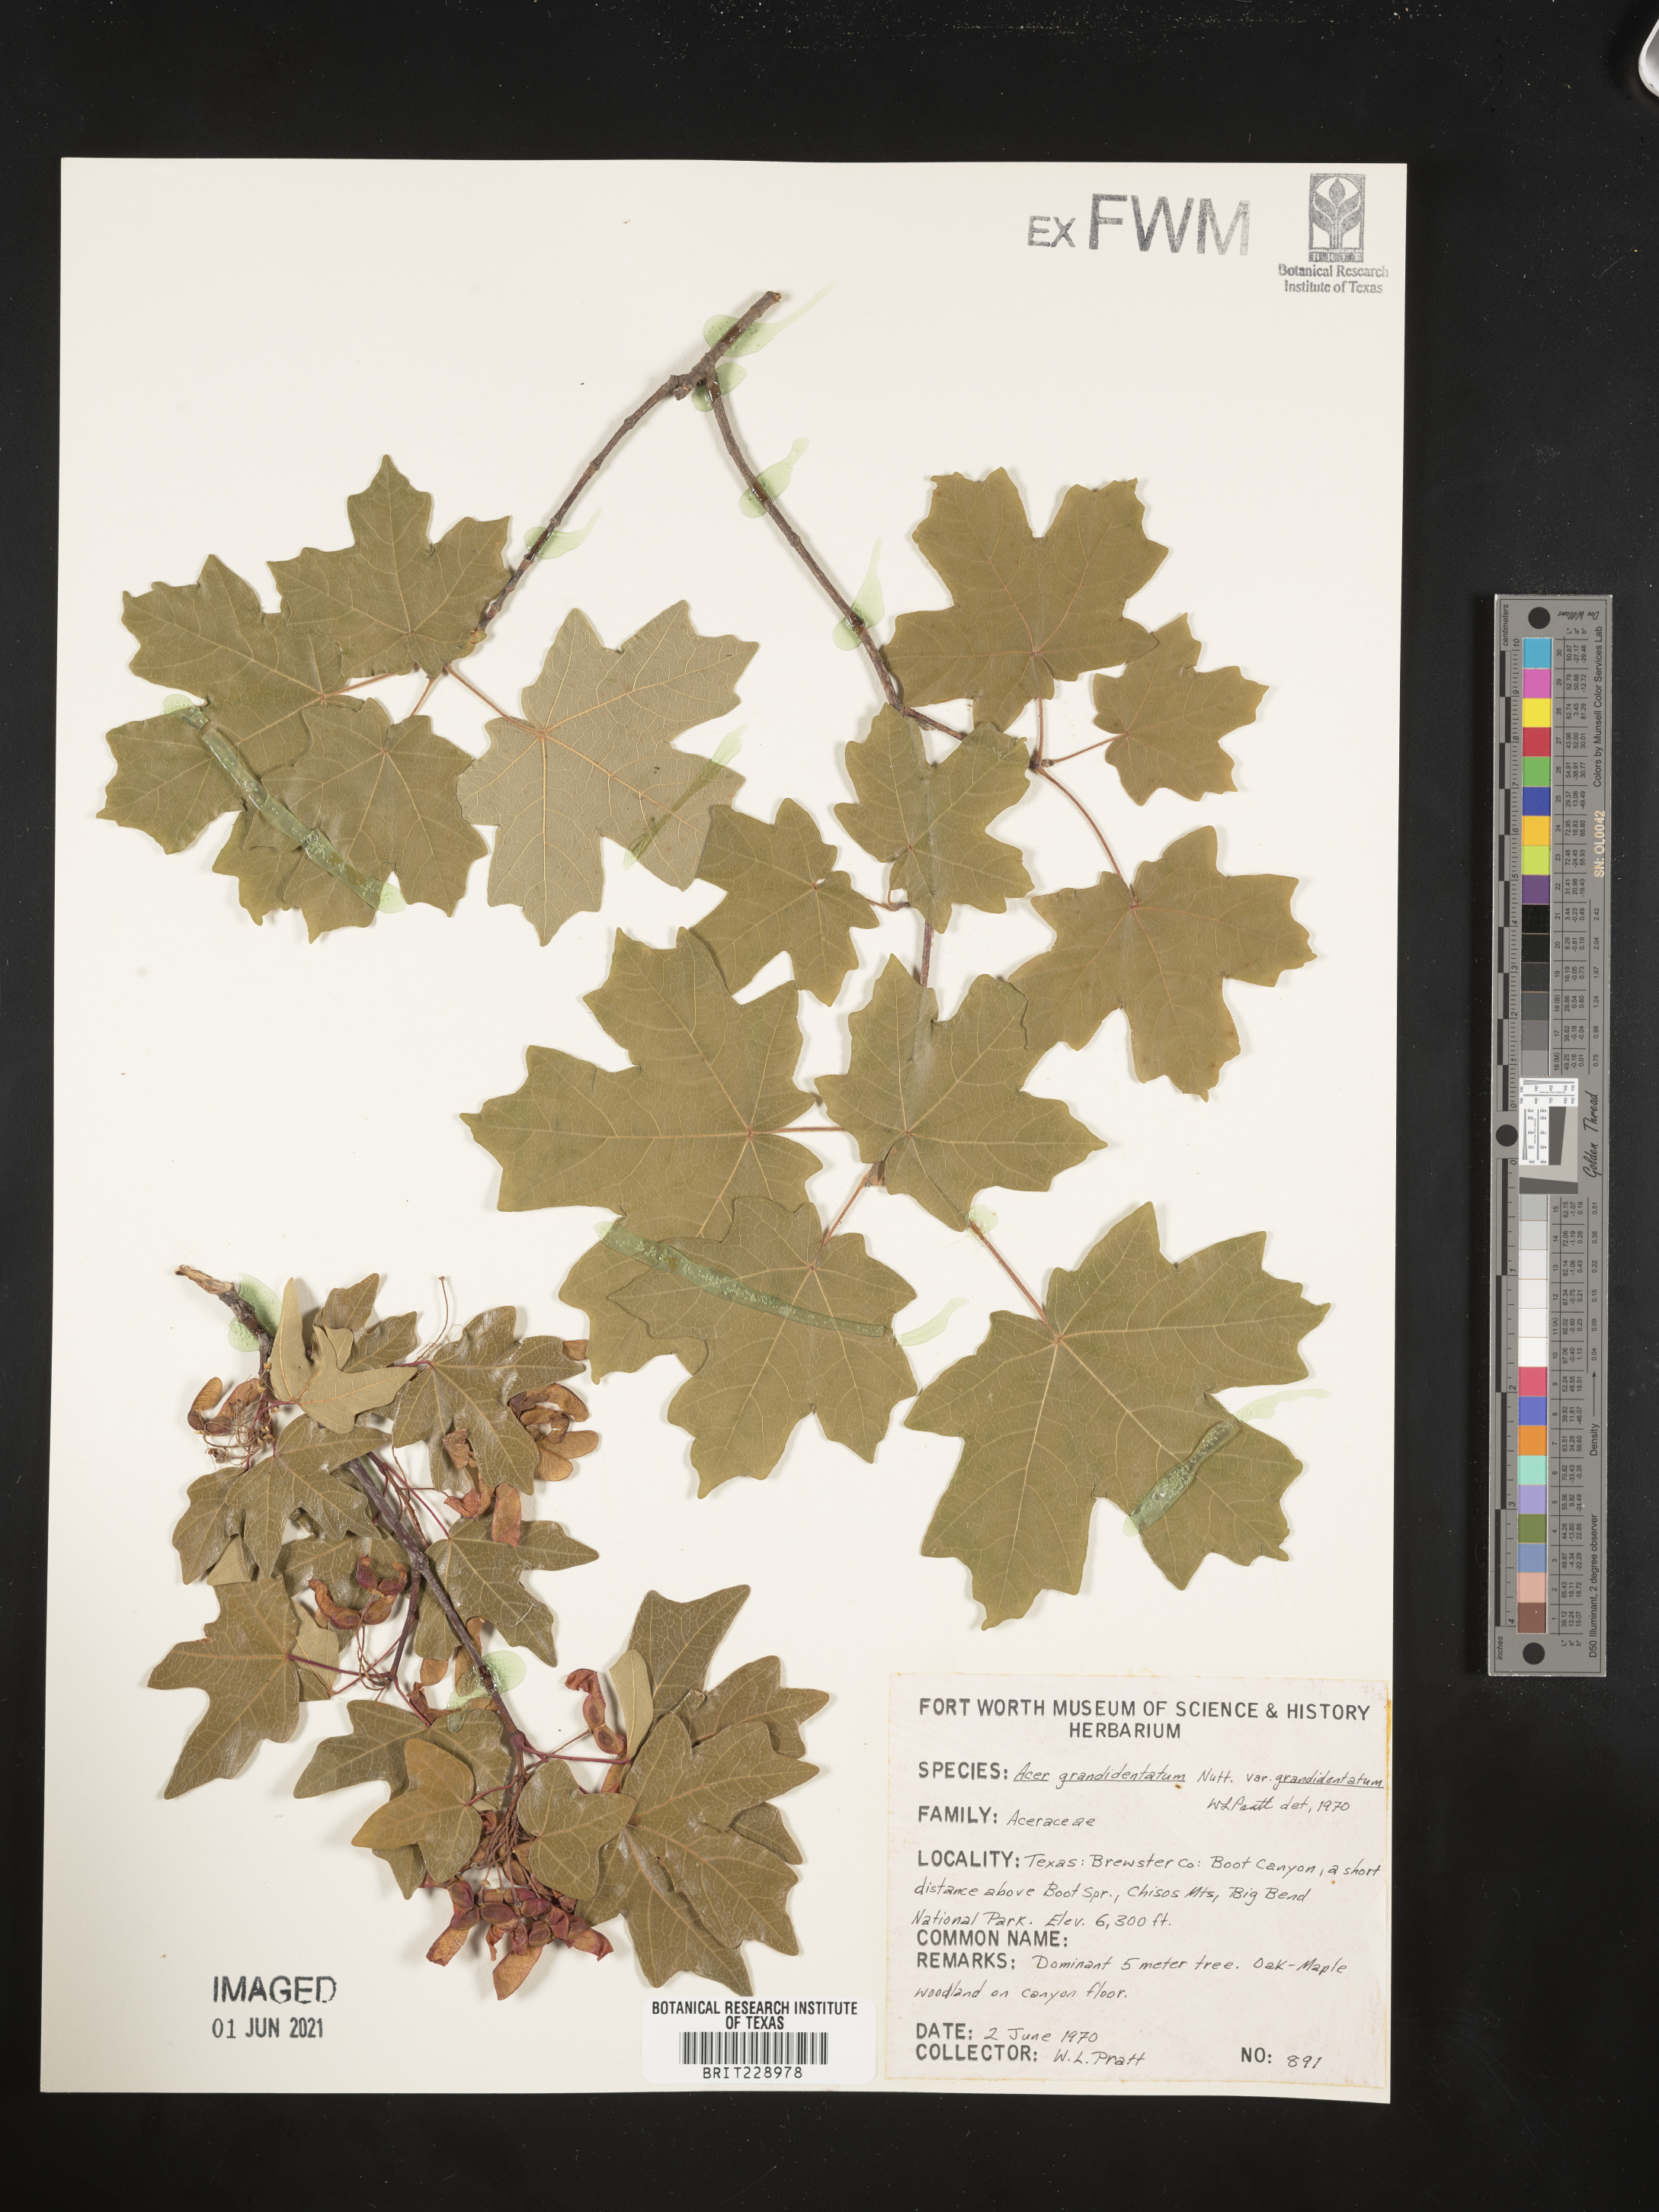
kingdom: Plantae
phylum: Tracheophyta
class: Magnoliopsida
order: Sapindales
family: Sapindaceae
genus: Acer
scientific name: Acer grandidentatum
